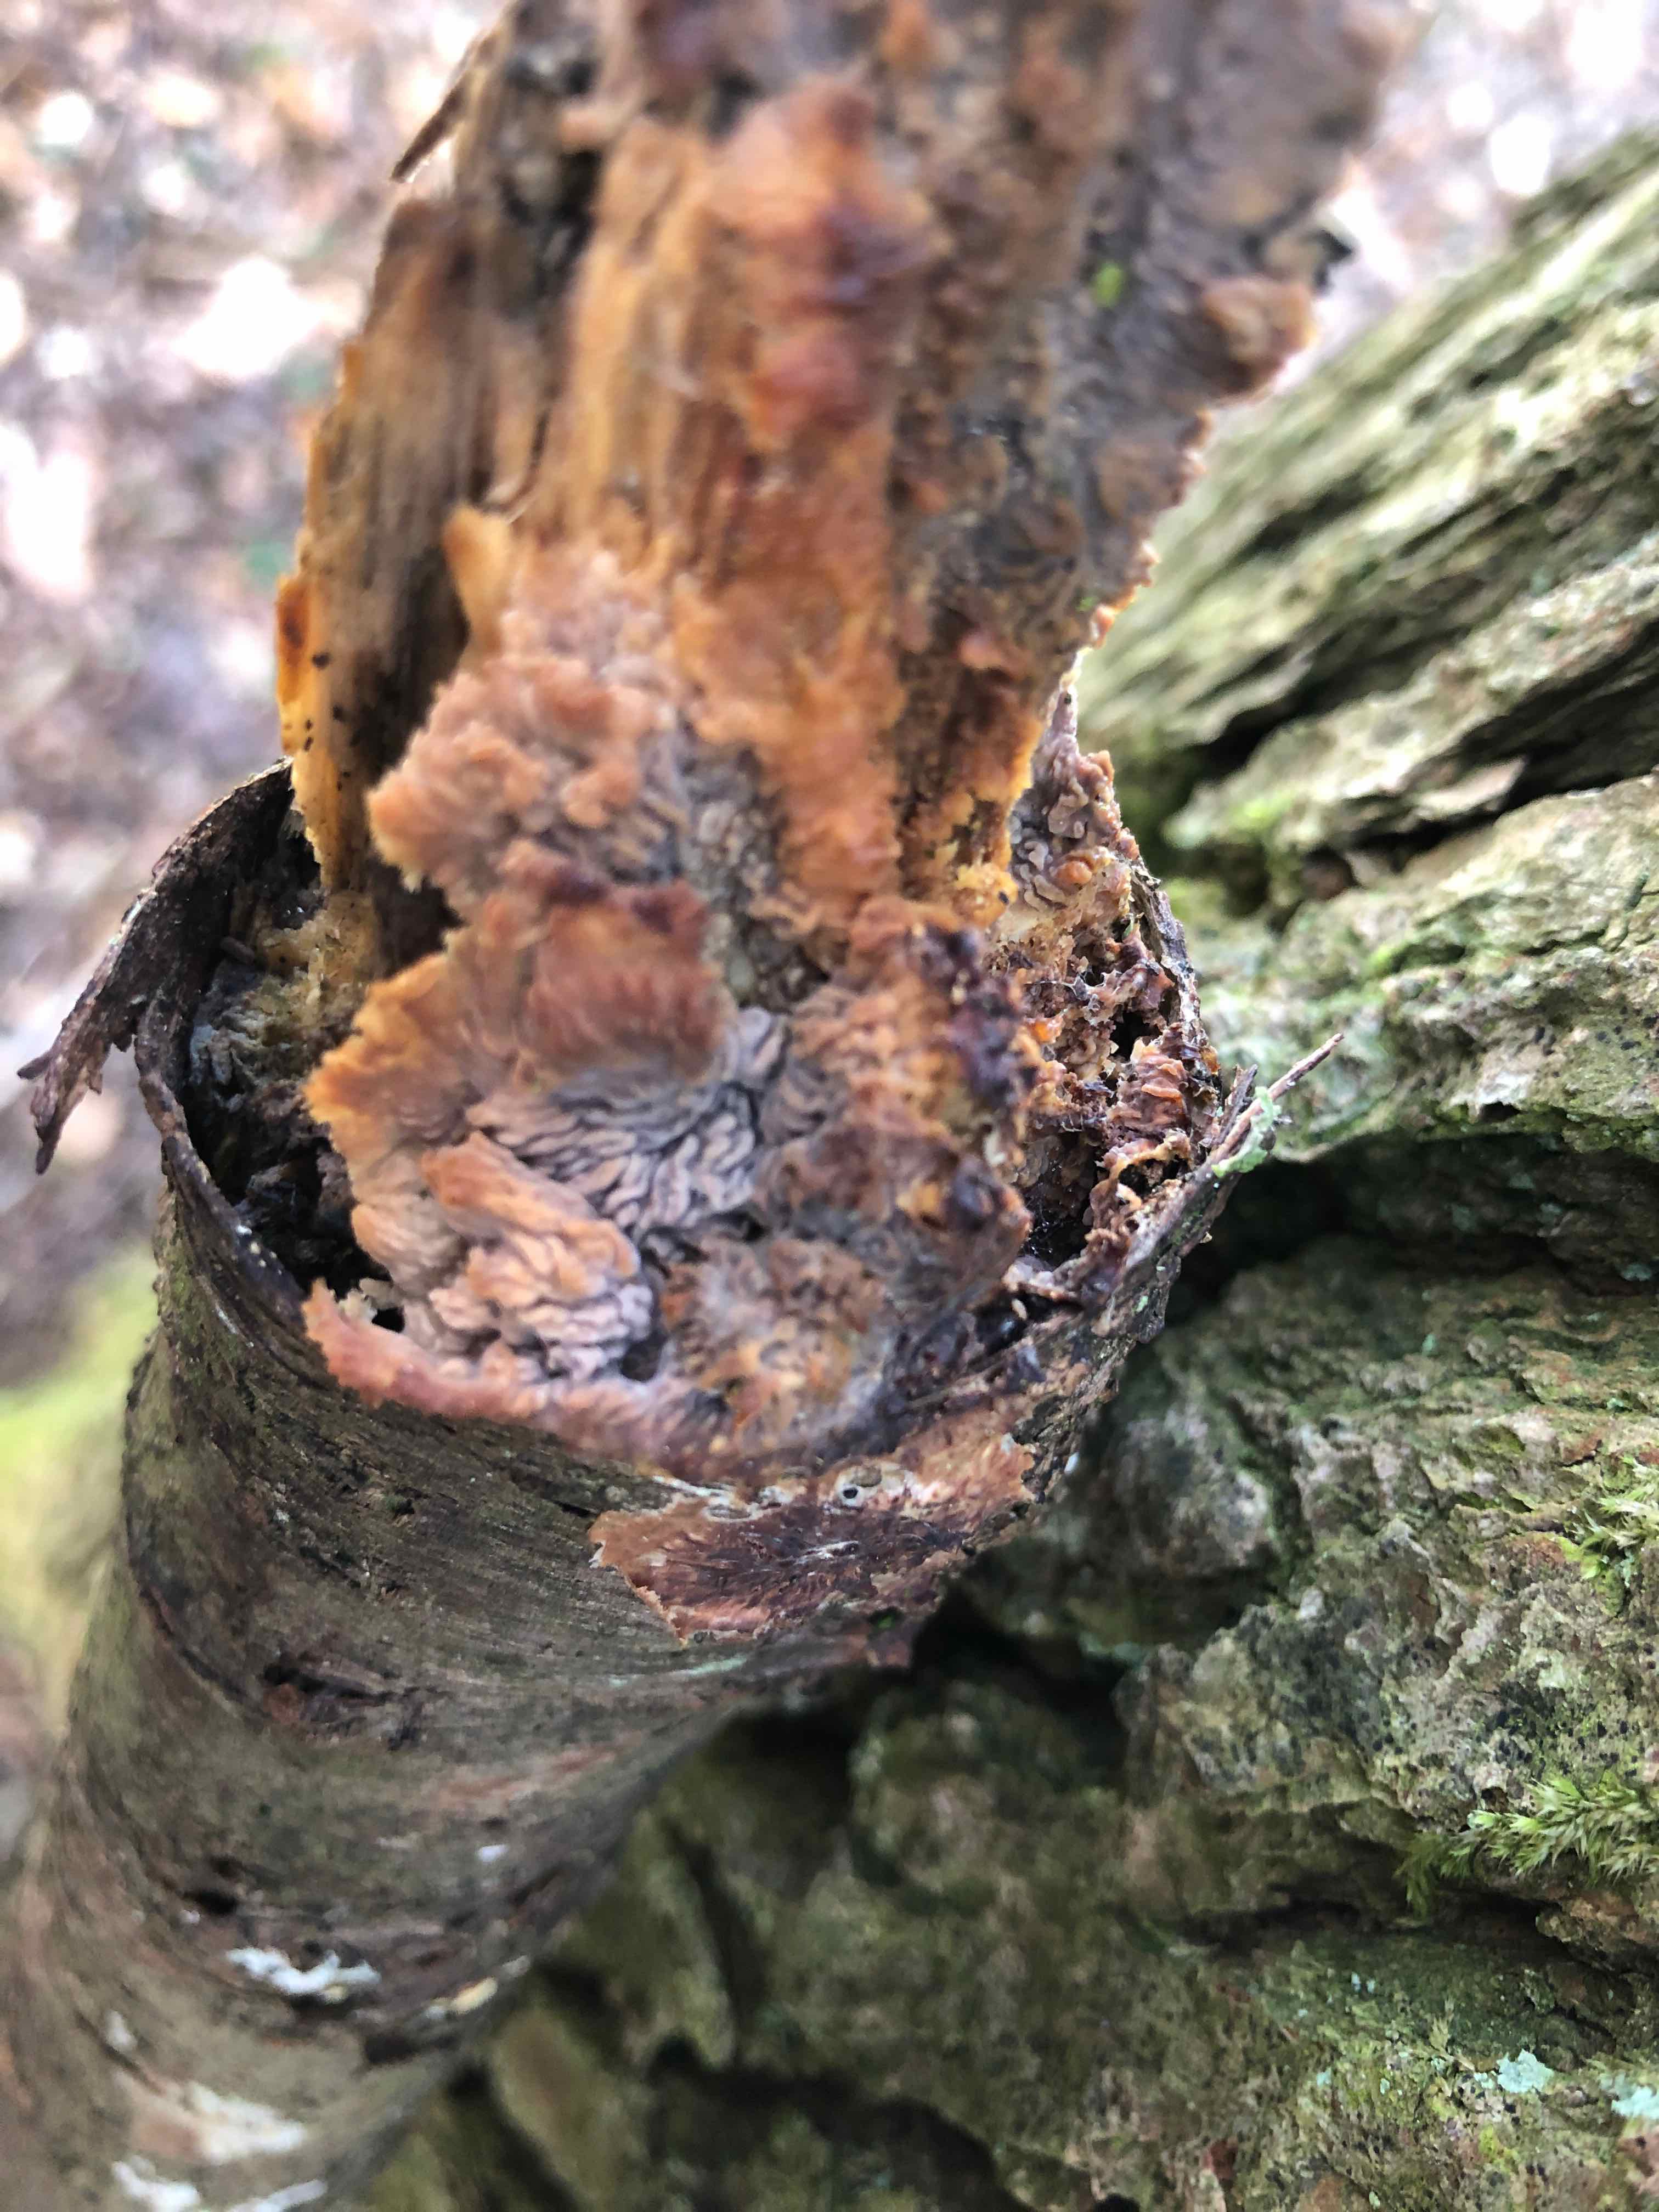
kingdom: Fungi
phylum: Basidiomycota
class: Agaricomycetes
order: Polyporales
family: Meruliaceae
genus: Phlebia
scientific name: Phlebia radiata
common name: stråle-åresvamp
